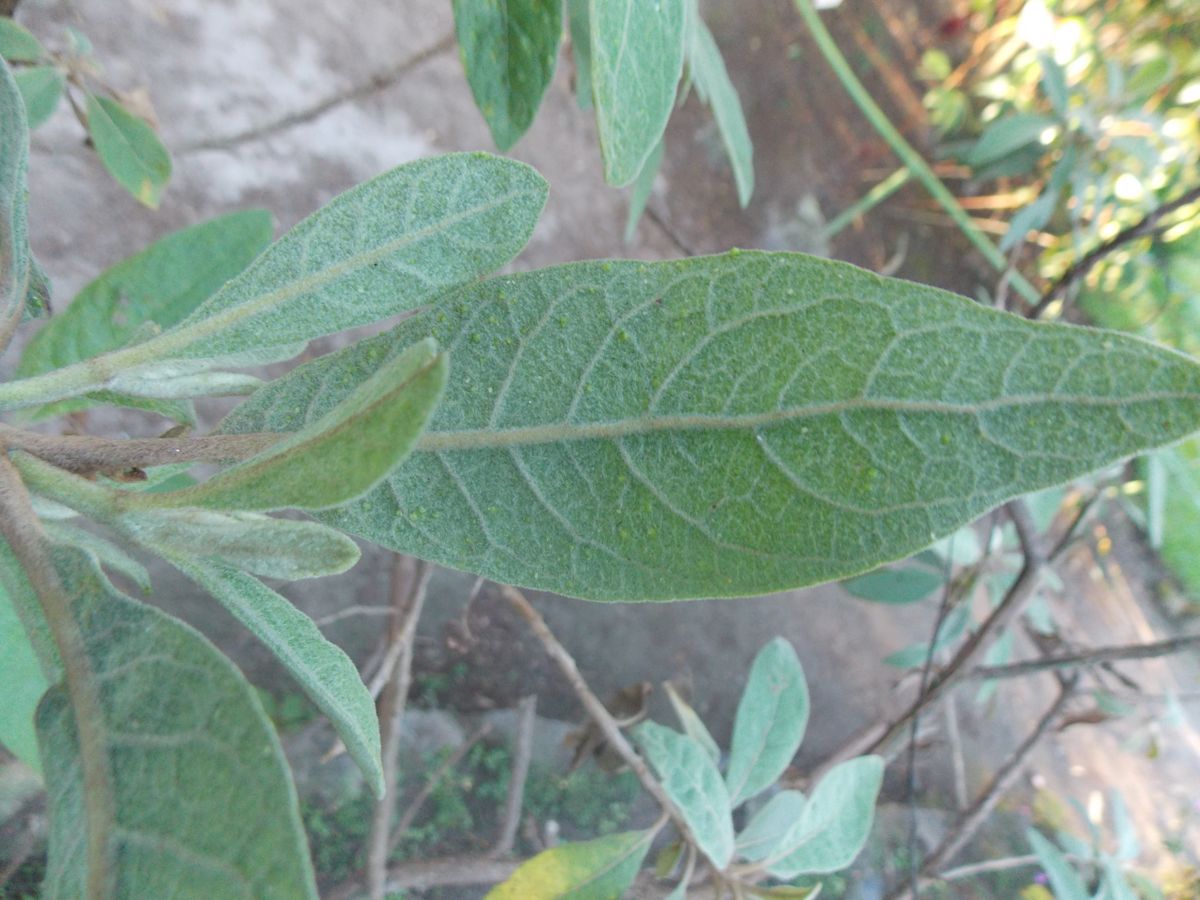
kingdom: Plantae
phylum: Tracheophyta
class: Magnoliopsida
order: Asterales
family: Asteraceae
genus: Vernonanthura
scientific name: Vernonanthura patens
